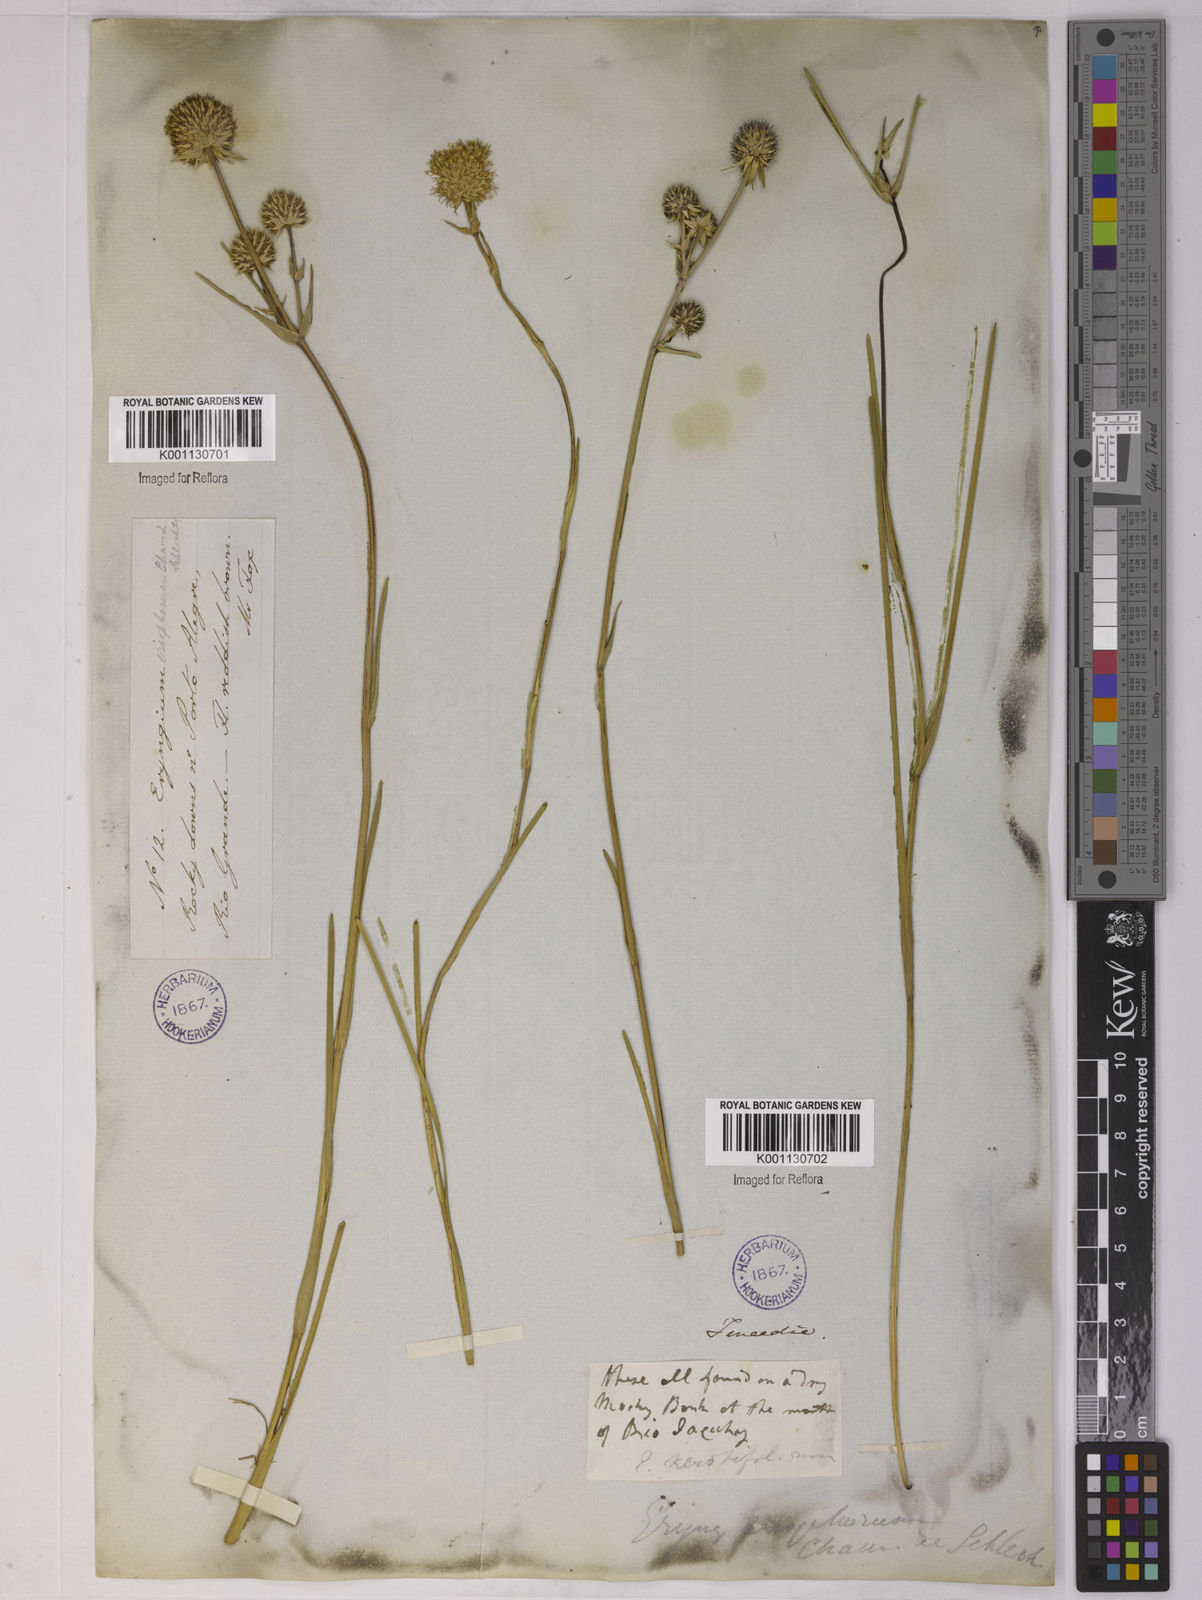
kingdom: Plantae
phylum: Tracheophyta
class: Magnoliopsida
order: Apiales
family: Apiaceae
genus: Eryngium
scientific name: Eryngium eriophorum
